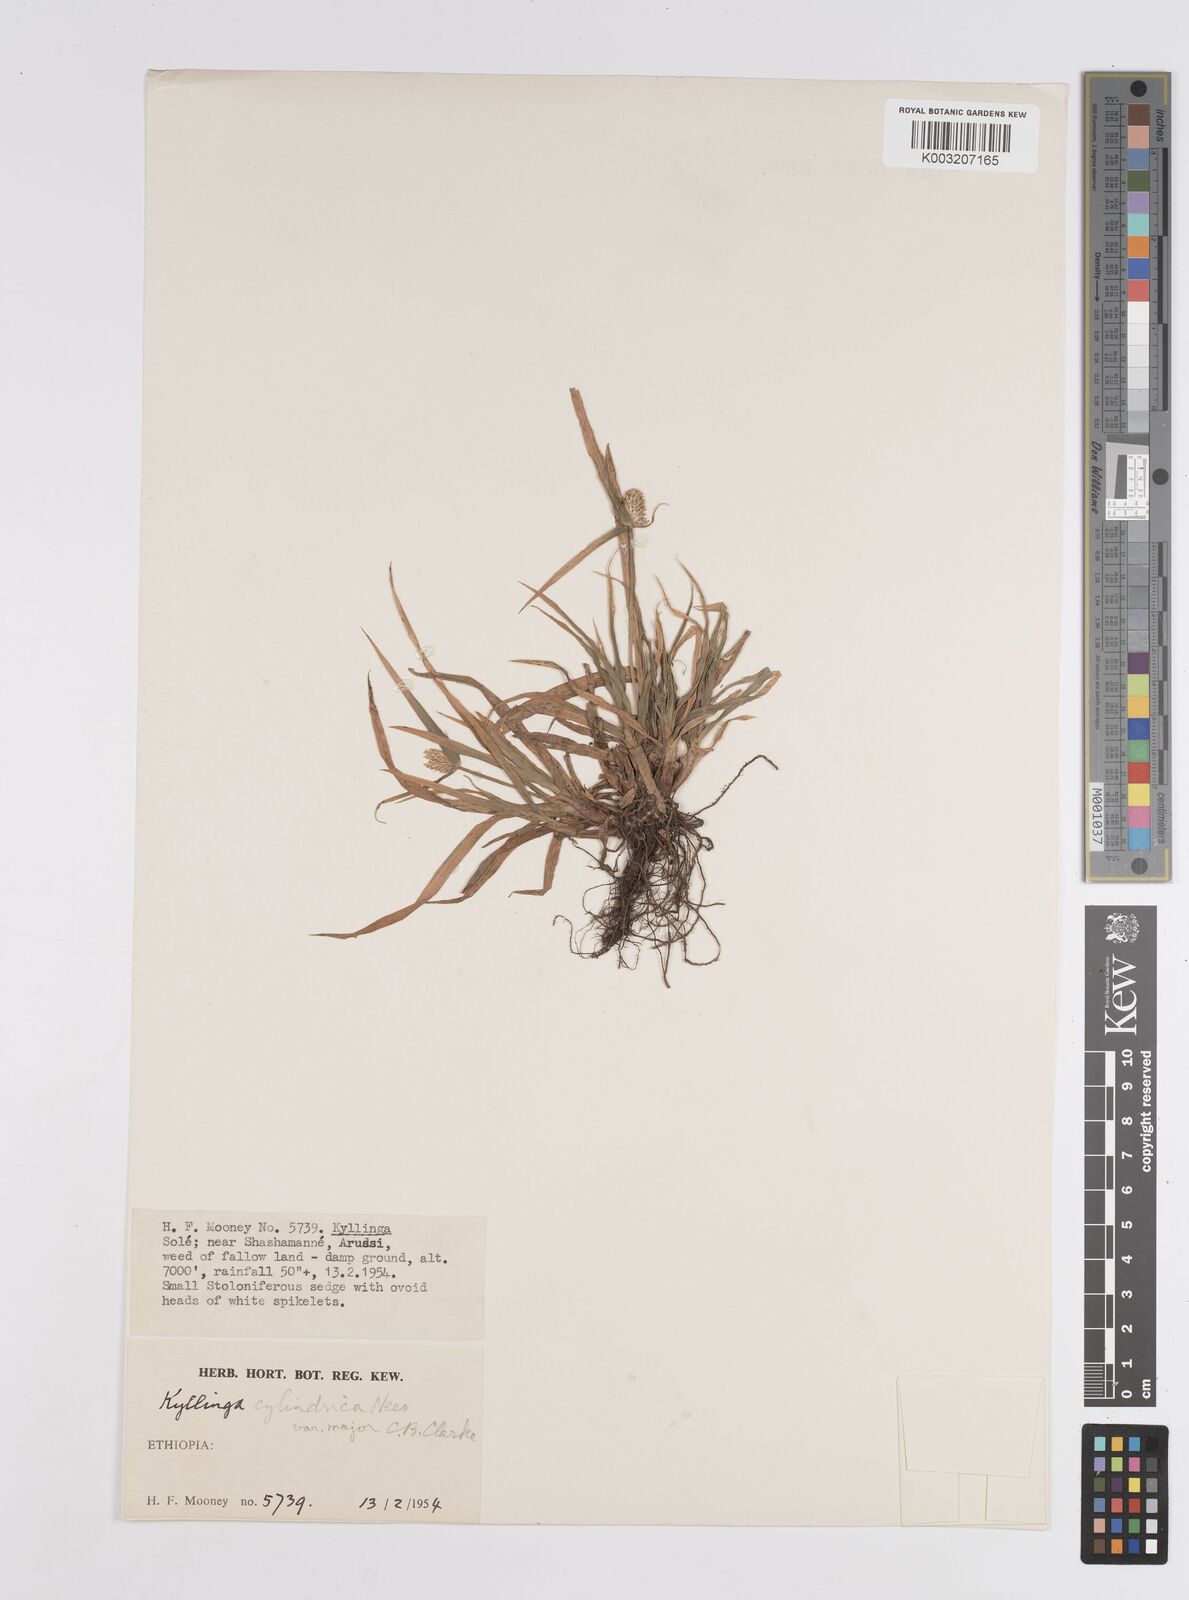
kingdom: Plantae
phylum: Tracheophyta
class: Liliopsida
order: Poales
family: Cyperaceae
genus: Cyperus
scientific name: Cyperus
